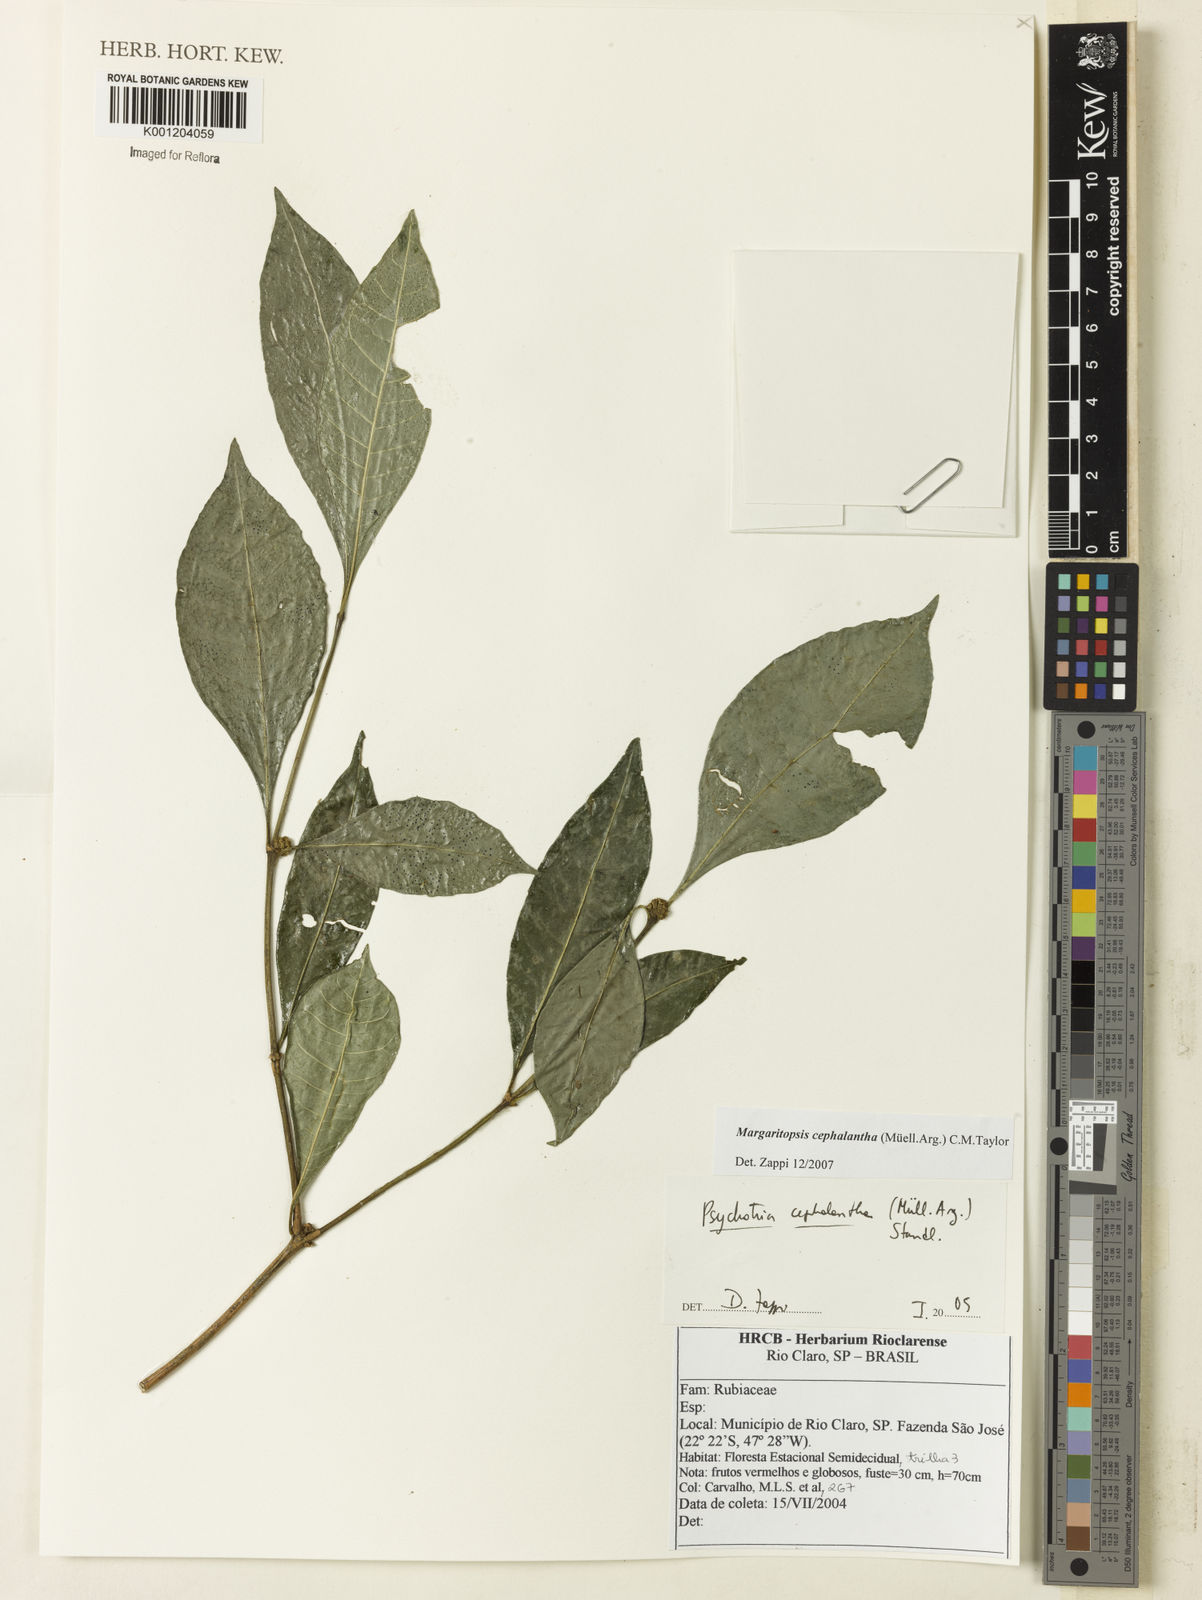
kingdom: Plantae
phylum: Tracheophyta
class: Magnoliopsida
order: Gentianales
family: Rubiaceae
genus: Eumachia
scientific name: Eumachia
